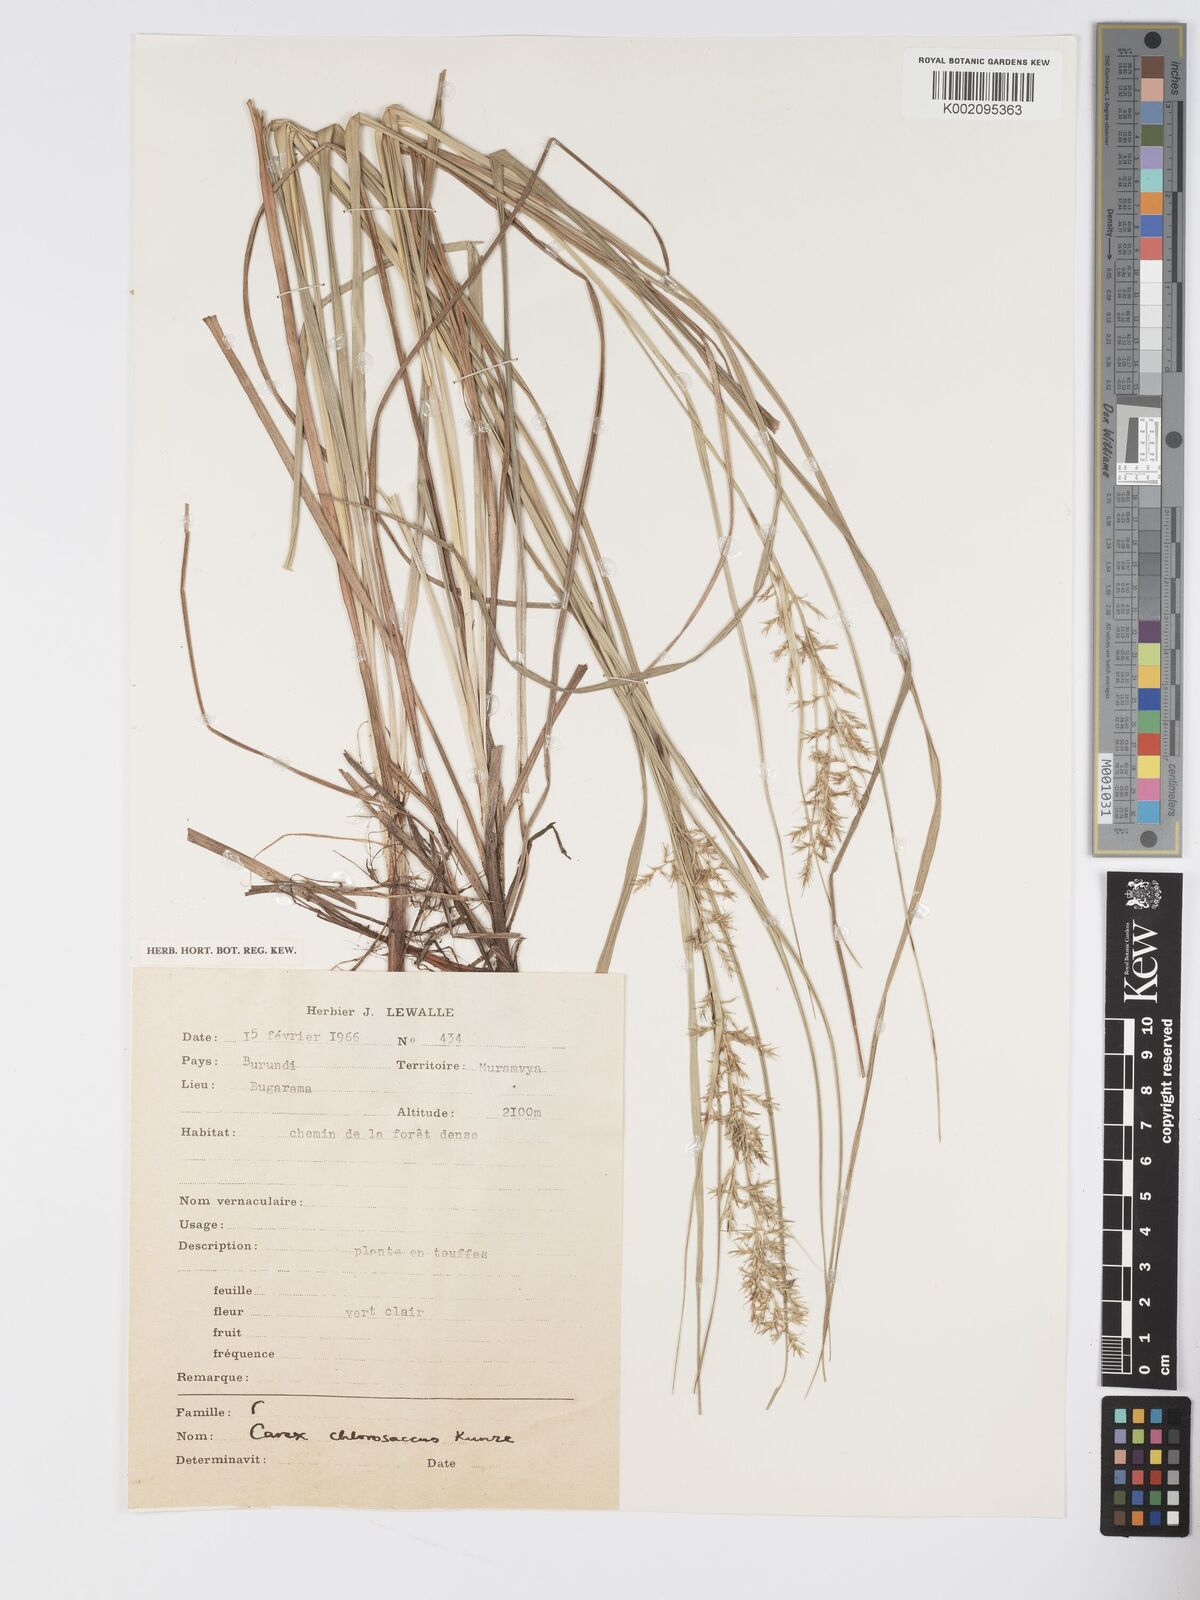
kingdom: Plantae
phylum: Tracheophyta
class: Liliopsida
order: Poales
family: Cyperaceae
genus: Carex
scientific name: Carex chlorosaccus
